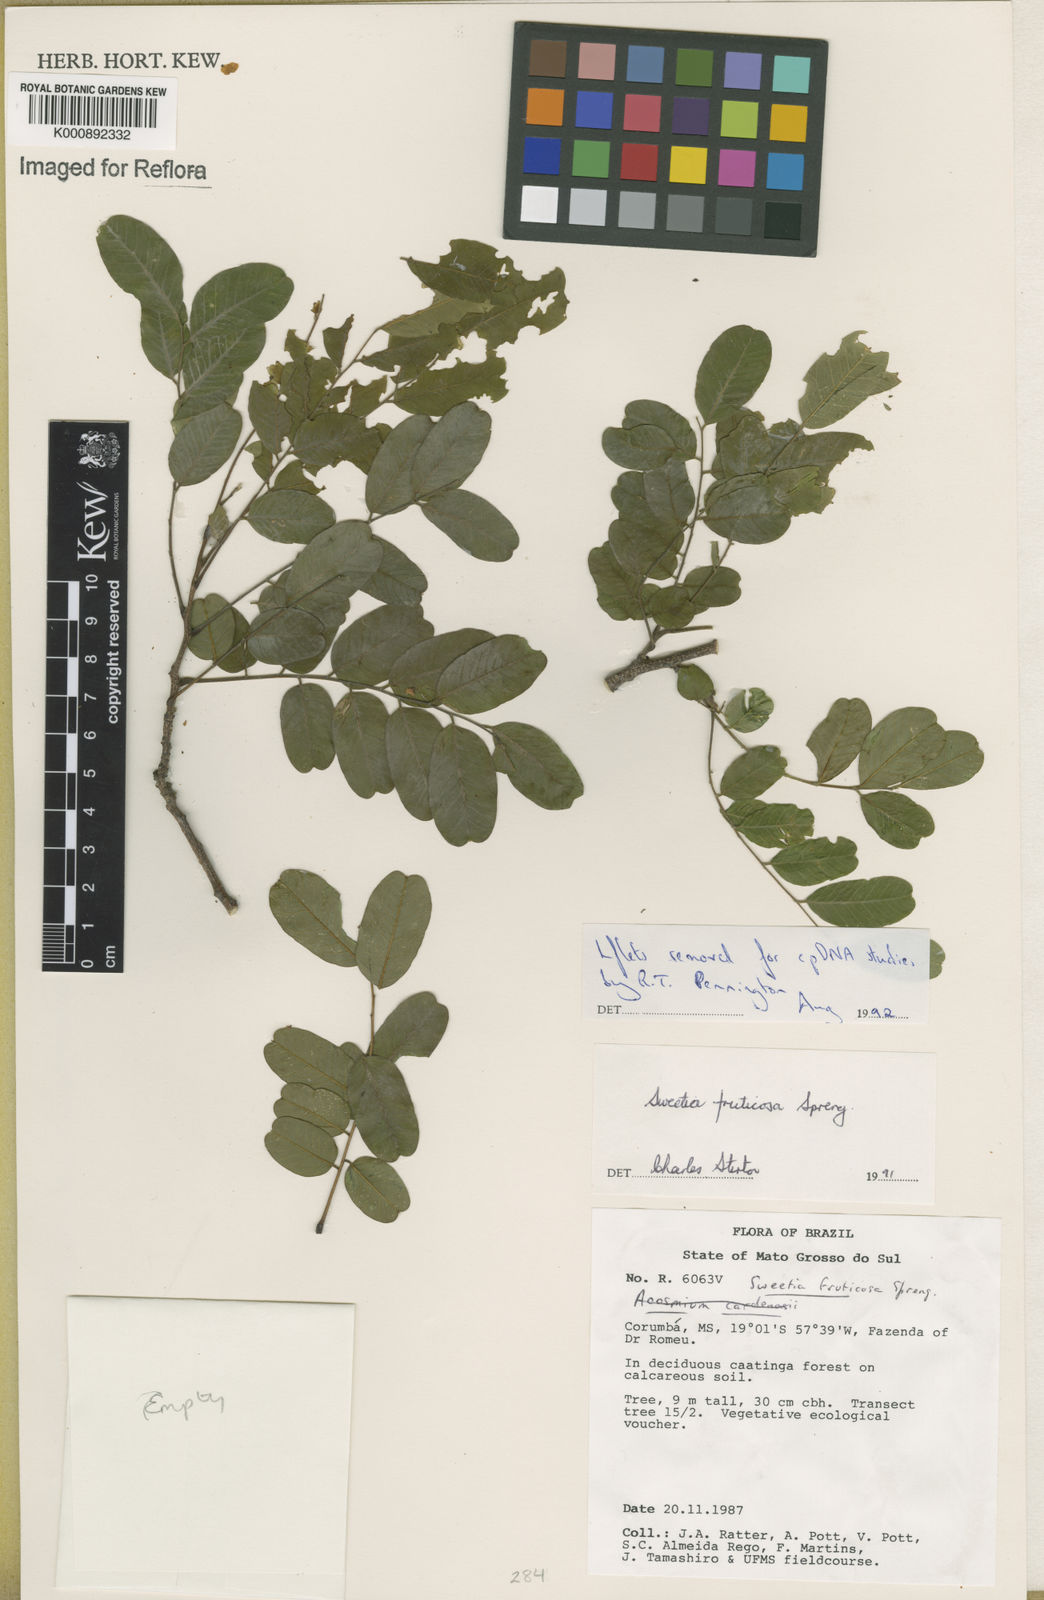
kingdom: Plantae
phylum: Tracheophyta
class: Magnoliopsida
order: Fabales
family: Fabaceae
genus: Sweetia
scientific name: Sweetia fruticosa
